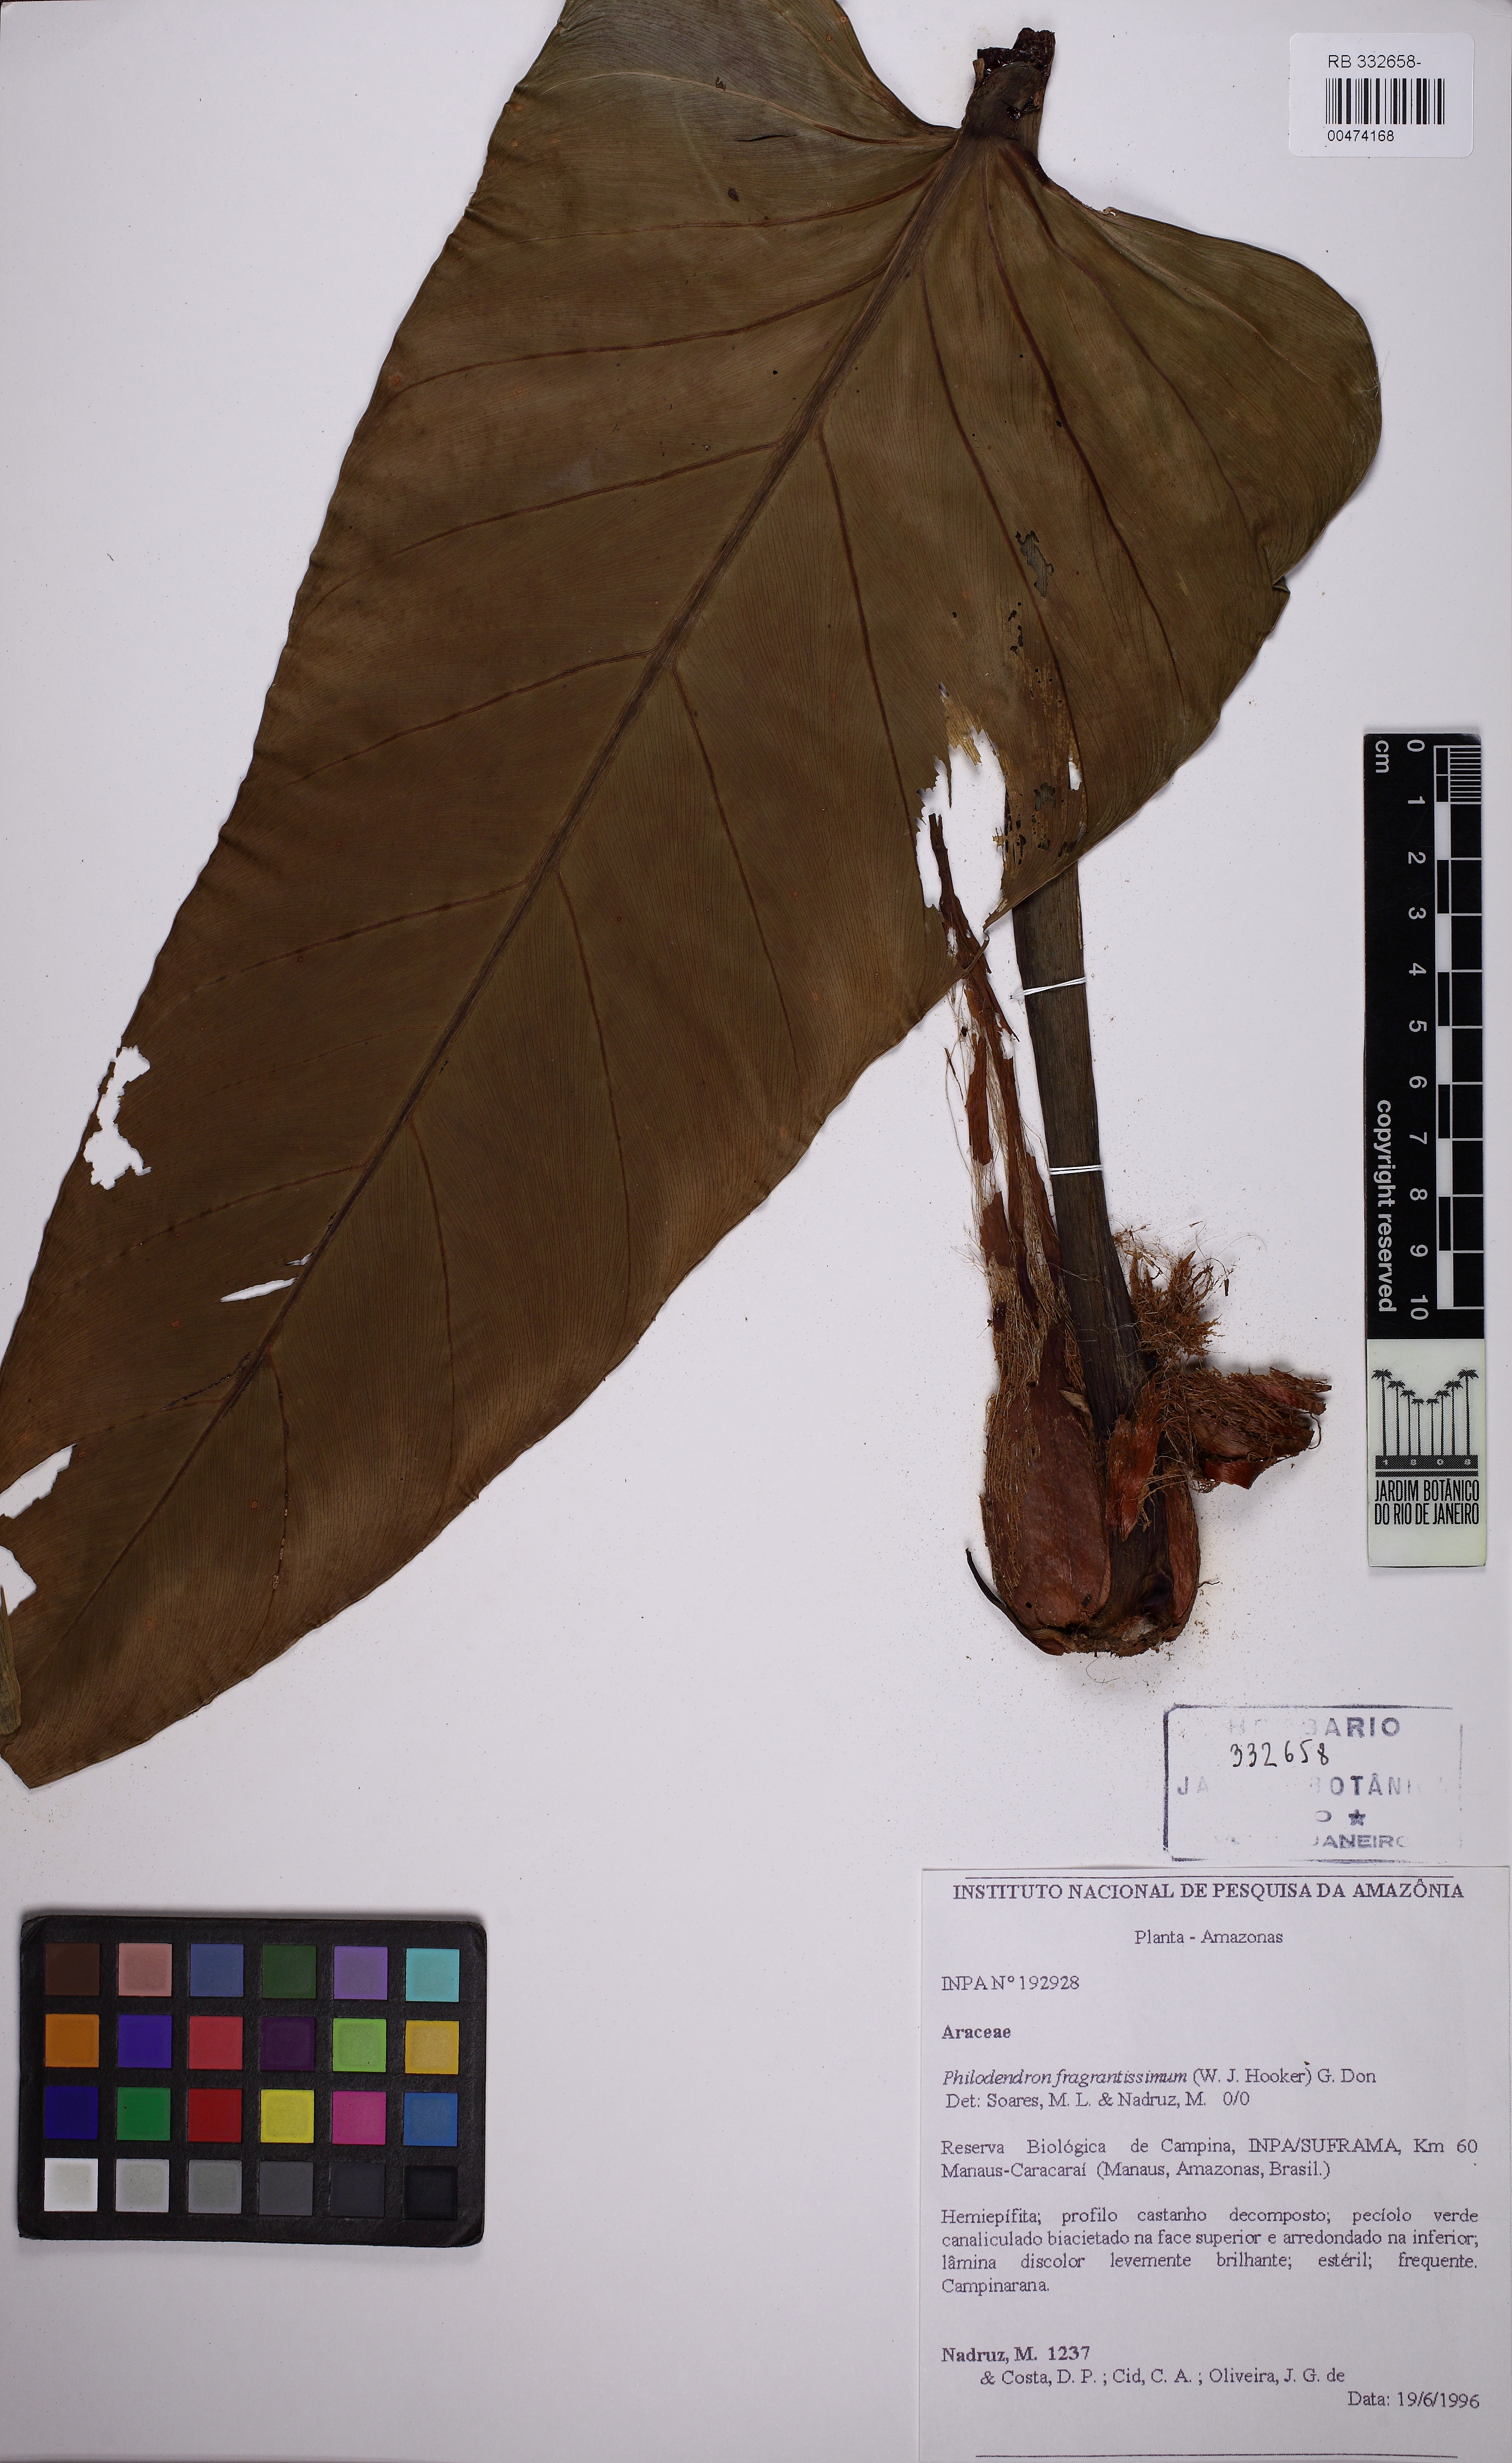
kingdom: Plantae
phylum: Tracheophyta
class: Liliopsida
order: Alismatales
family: Araceae
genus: Philodendron
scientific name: Philodendron fragrantissimum
